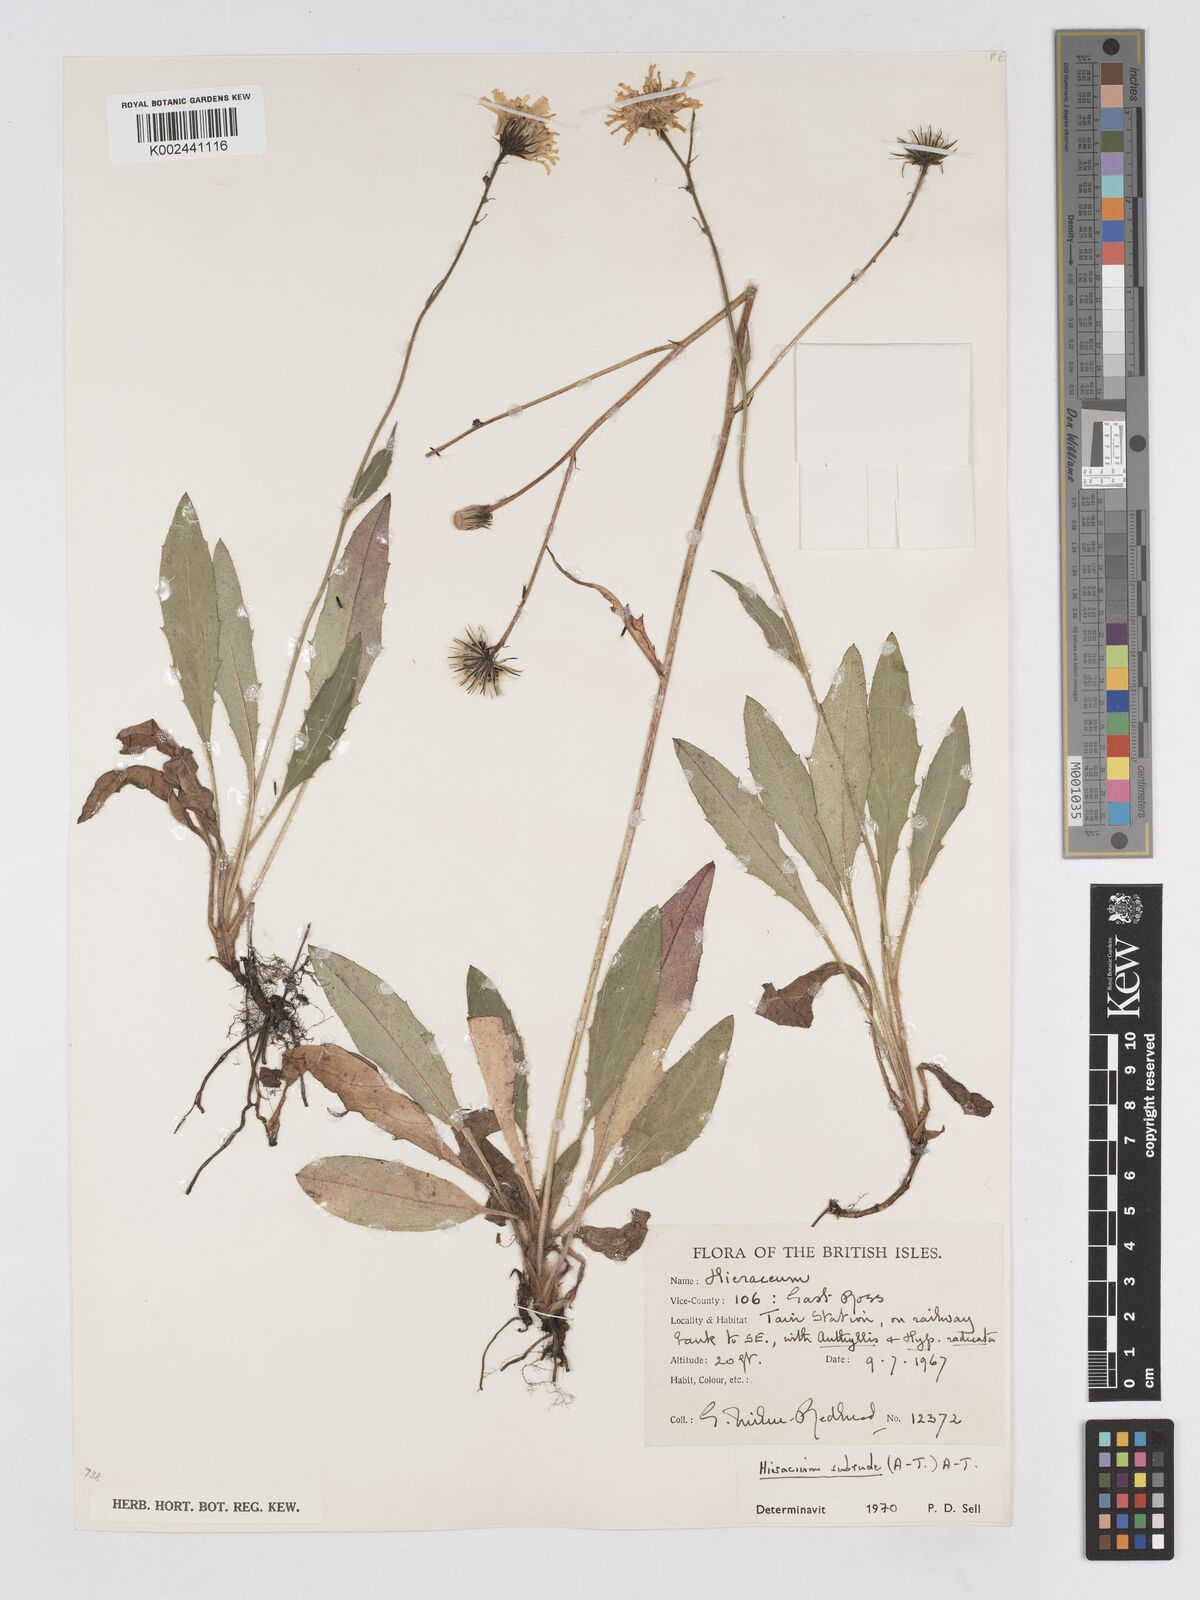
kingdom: Plantae
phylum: Tracheophyta
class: Magnoliopsida
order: Asterales
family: Asteraceae
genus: Pilosella
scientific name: Pilosella subrubens
